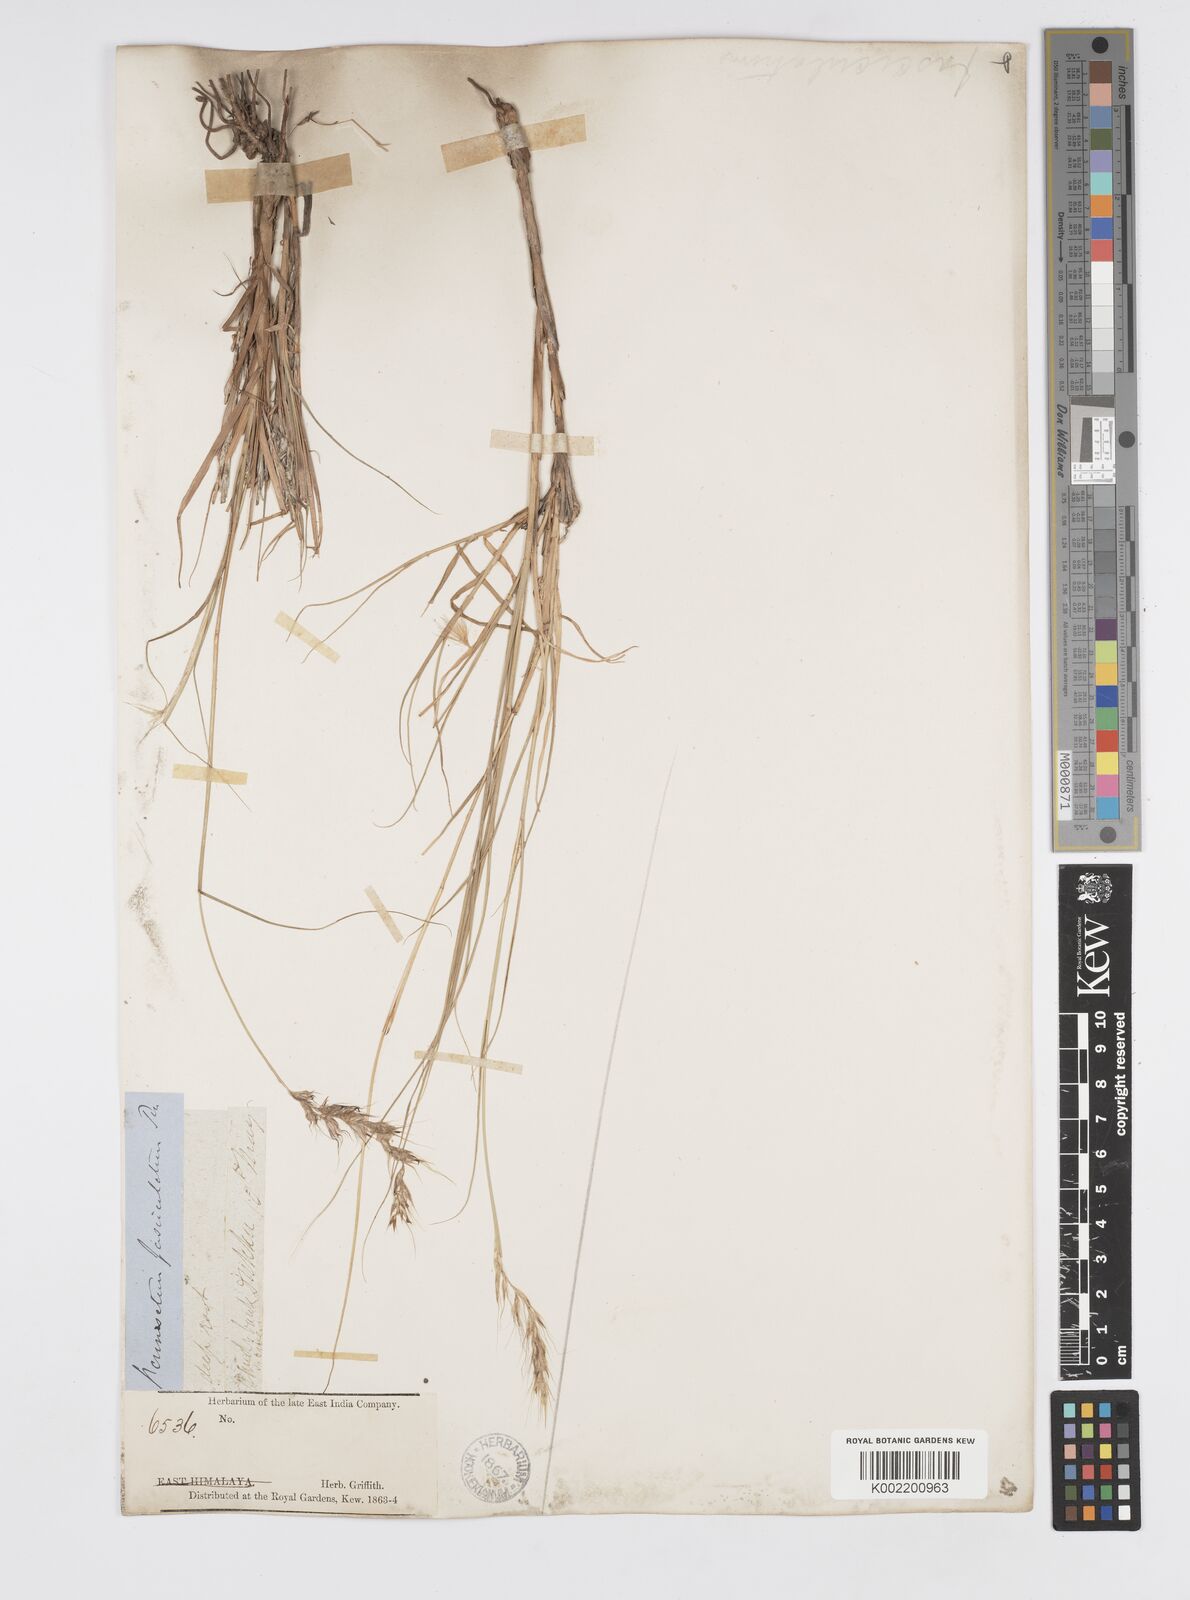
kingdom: Plantae
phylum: Tracheophyta
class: Liliopsida
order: Poales
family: Poaceae
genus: Cenchrus
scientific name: Cenchrus orientalis
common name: Oriental fountain grass
